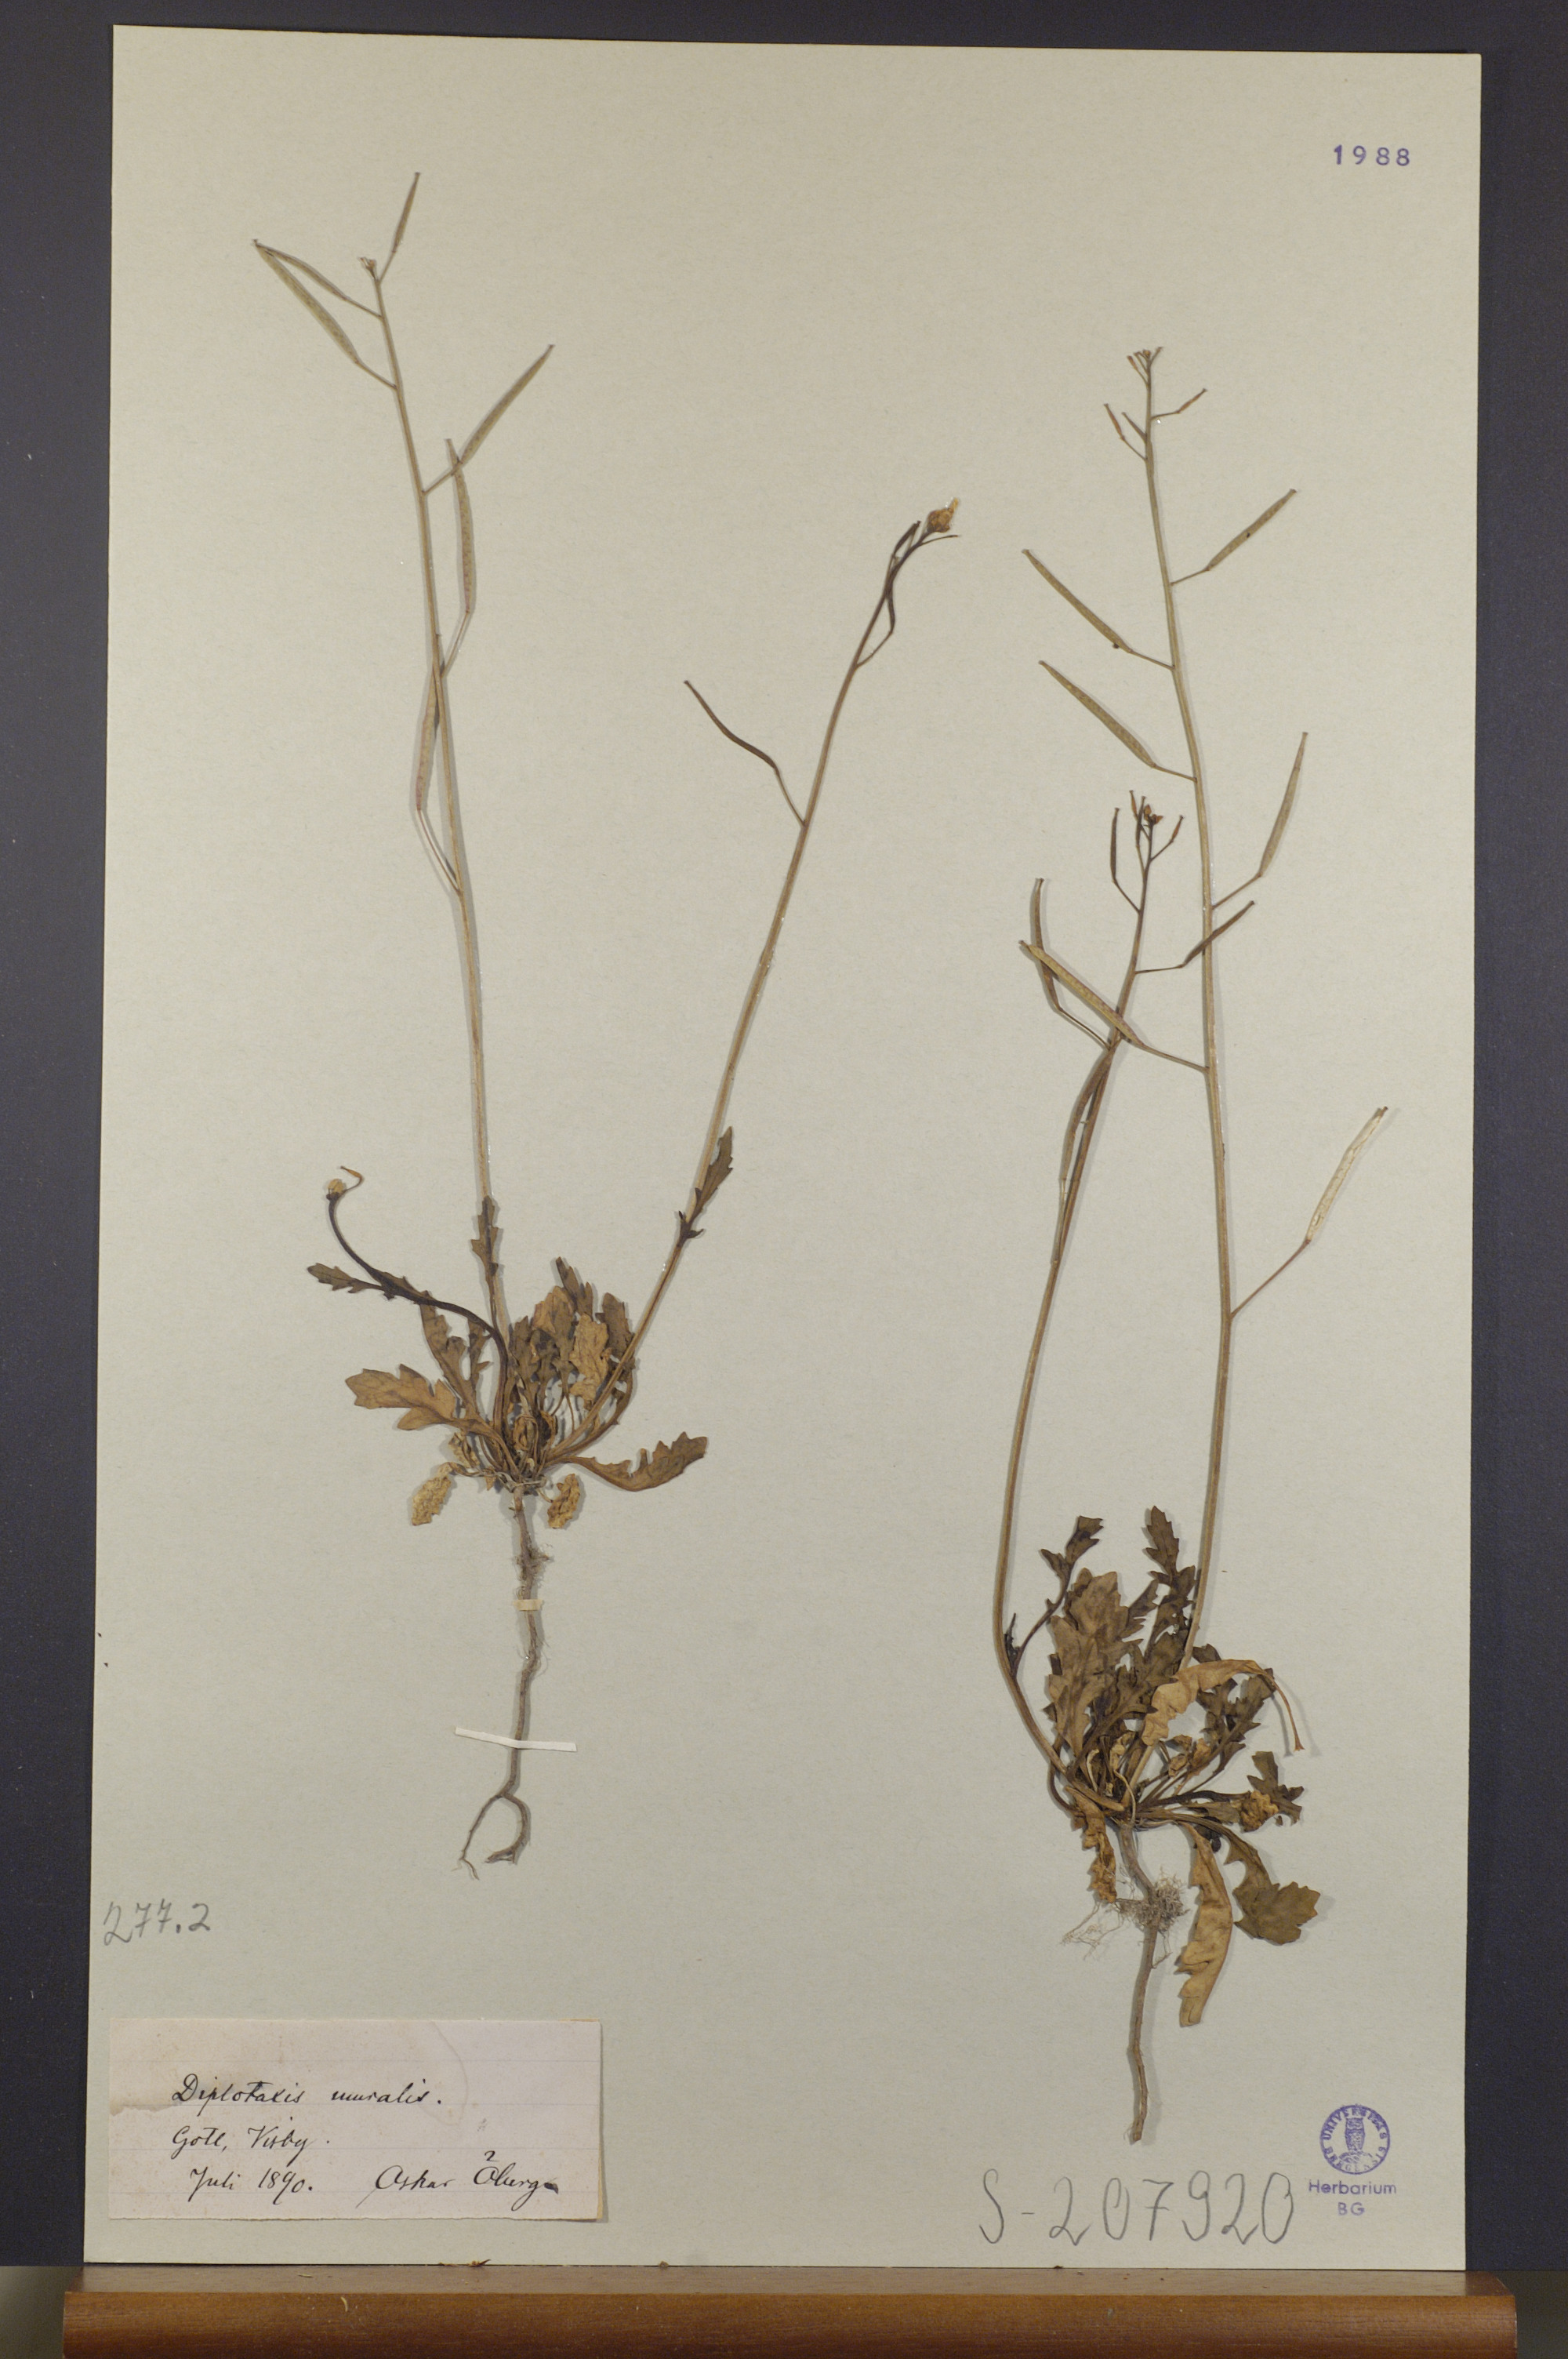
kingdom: Plantae
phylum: Tracheophyta
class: Magnoliopsida
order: Brassicales
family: Brassicaceae
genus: Diplotaxis
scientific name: Diplotaxis muralis
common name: Annual wall-rocket
